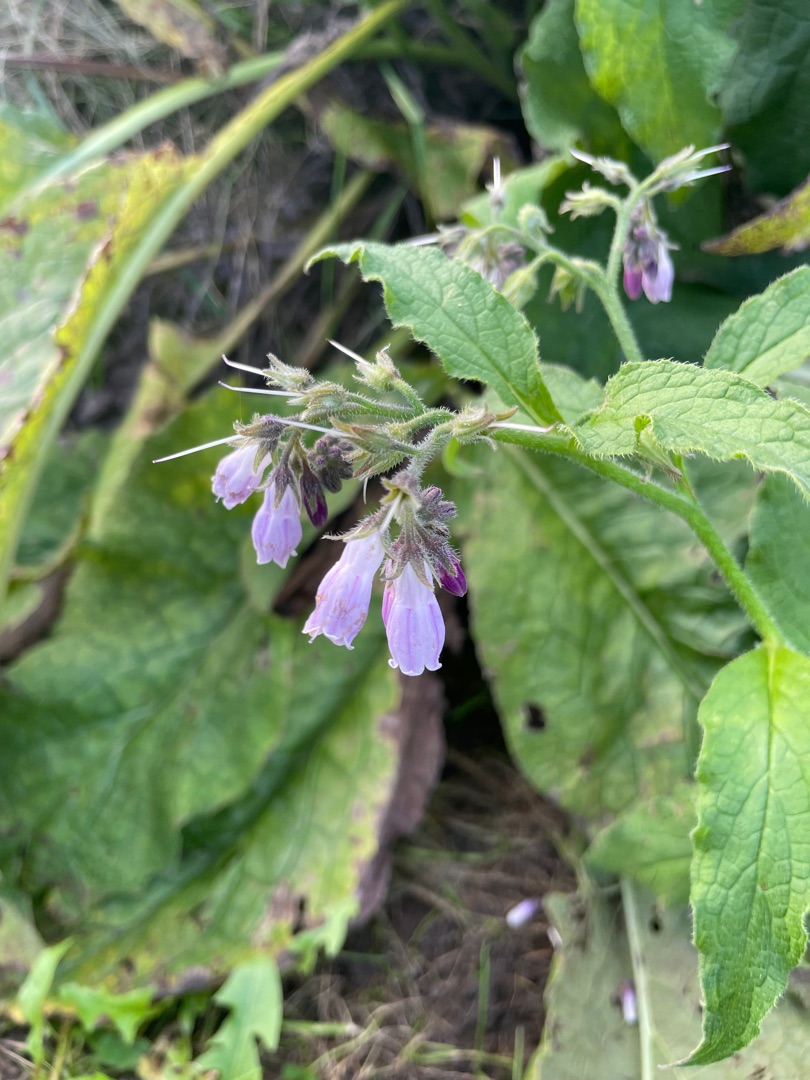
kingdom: Plantae
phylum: Tracheophyta
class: Magnoliopsida
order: Boraginales
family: Boraginaceae
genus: Symphytum
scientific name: Symphytum uplandicum
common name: Foder-kulsukker
